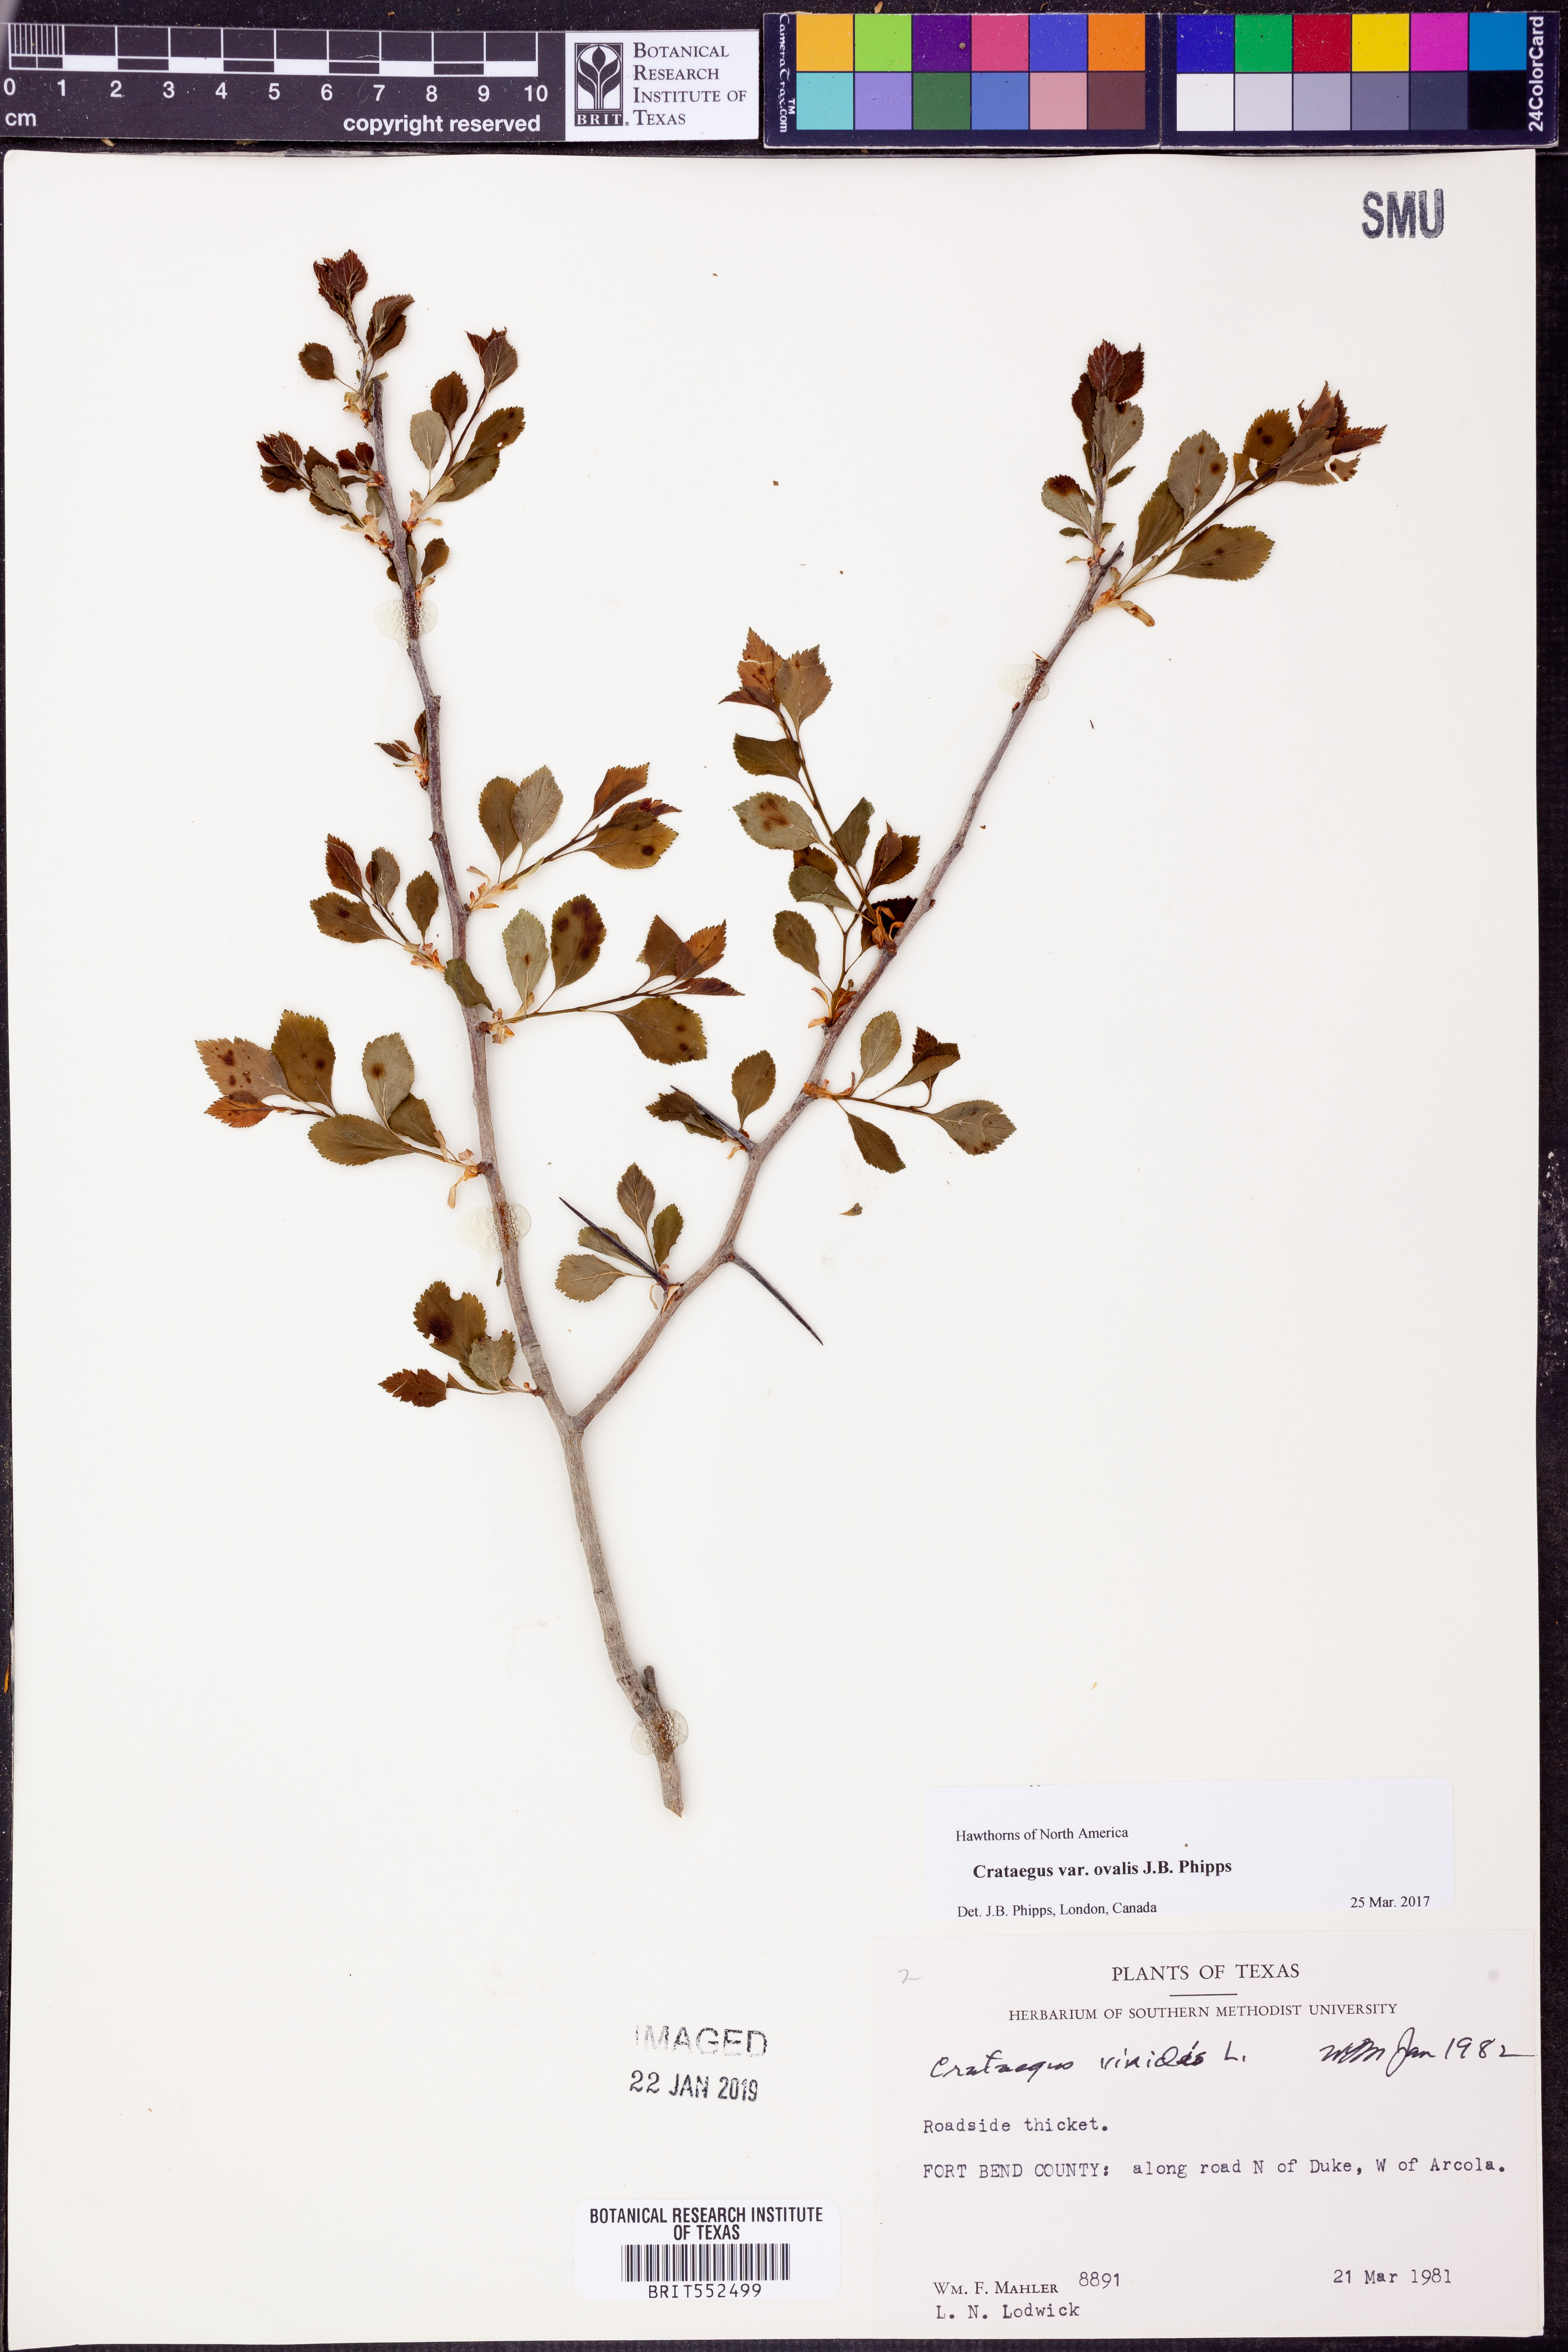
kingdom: Plantae
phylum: Tracheophyta
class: Magnoliopsida
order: Rosales
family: Rosaceae
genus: Crataegus
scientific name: Crataegus
